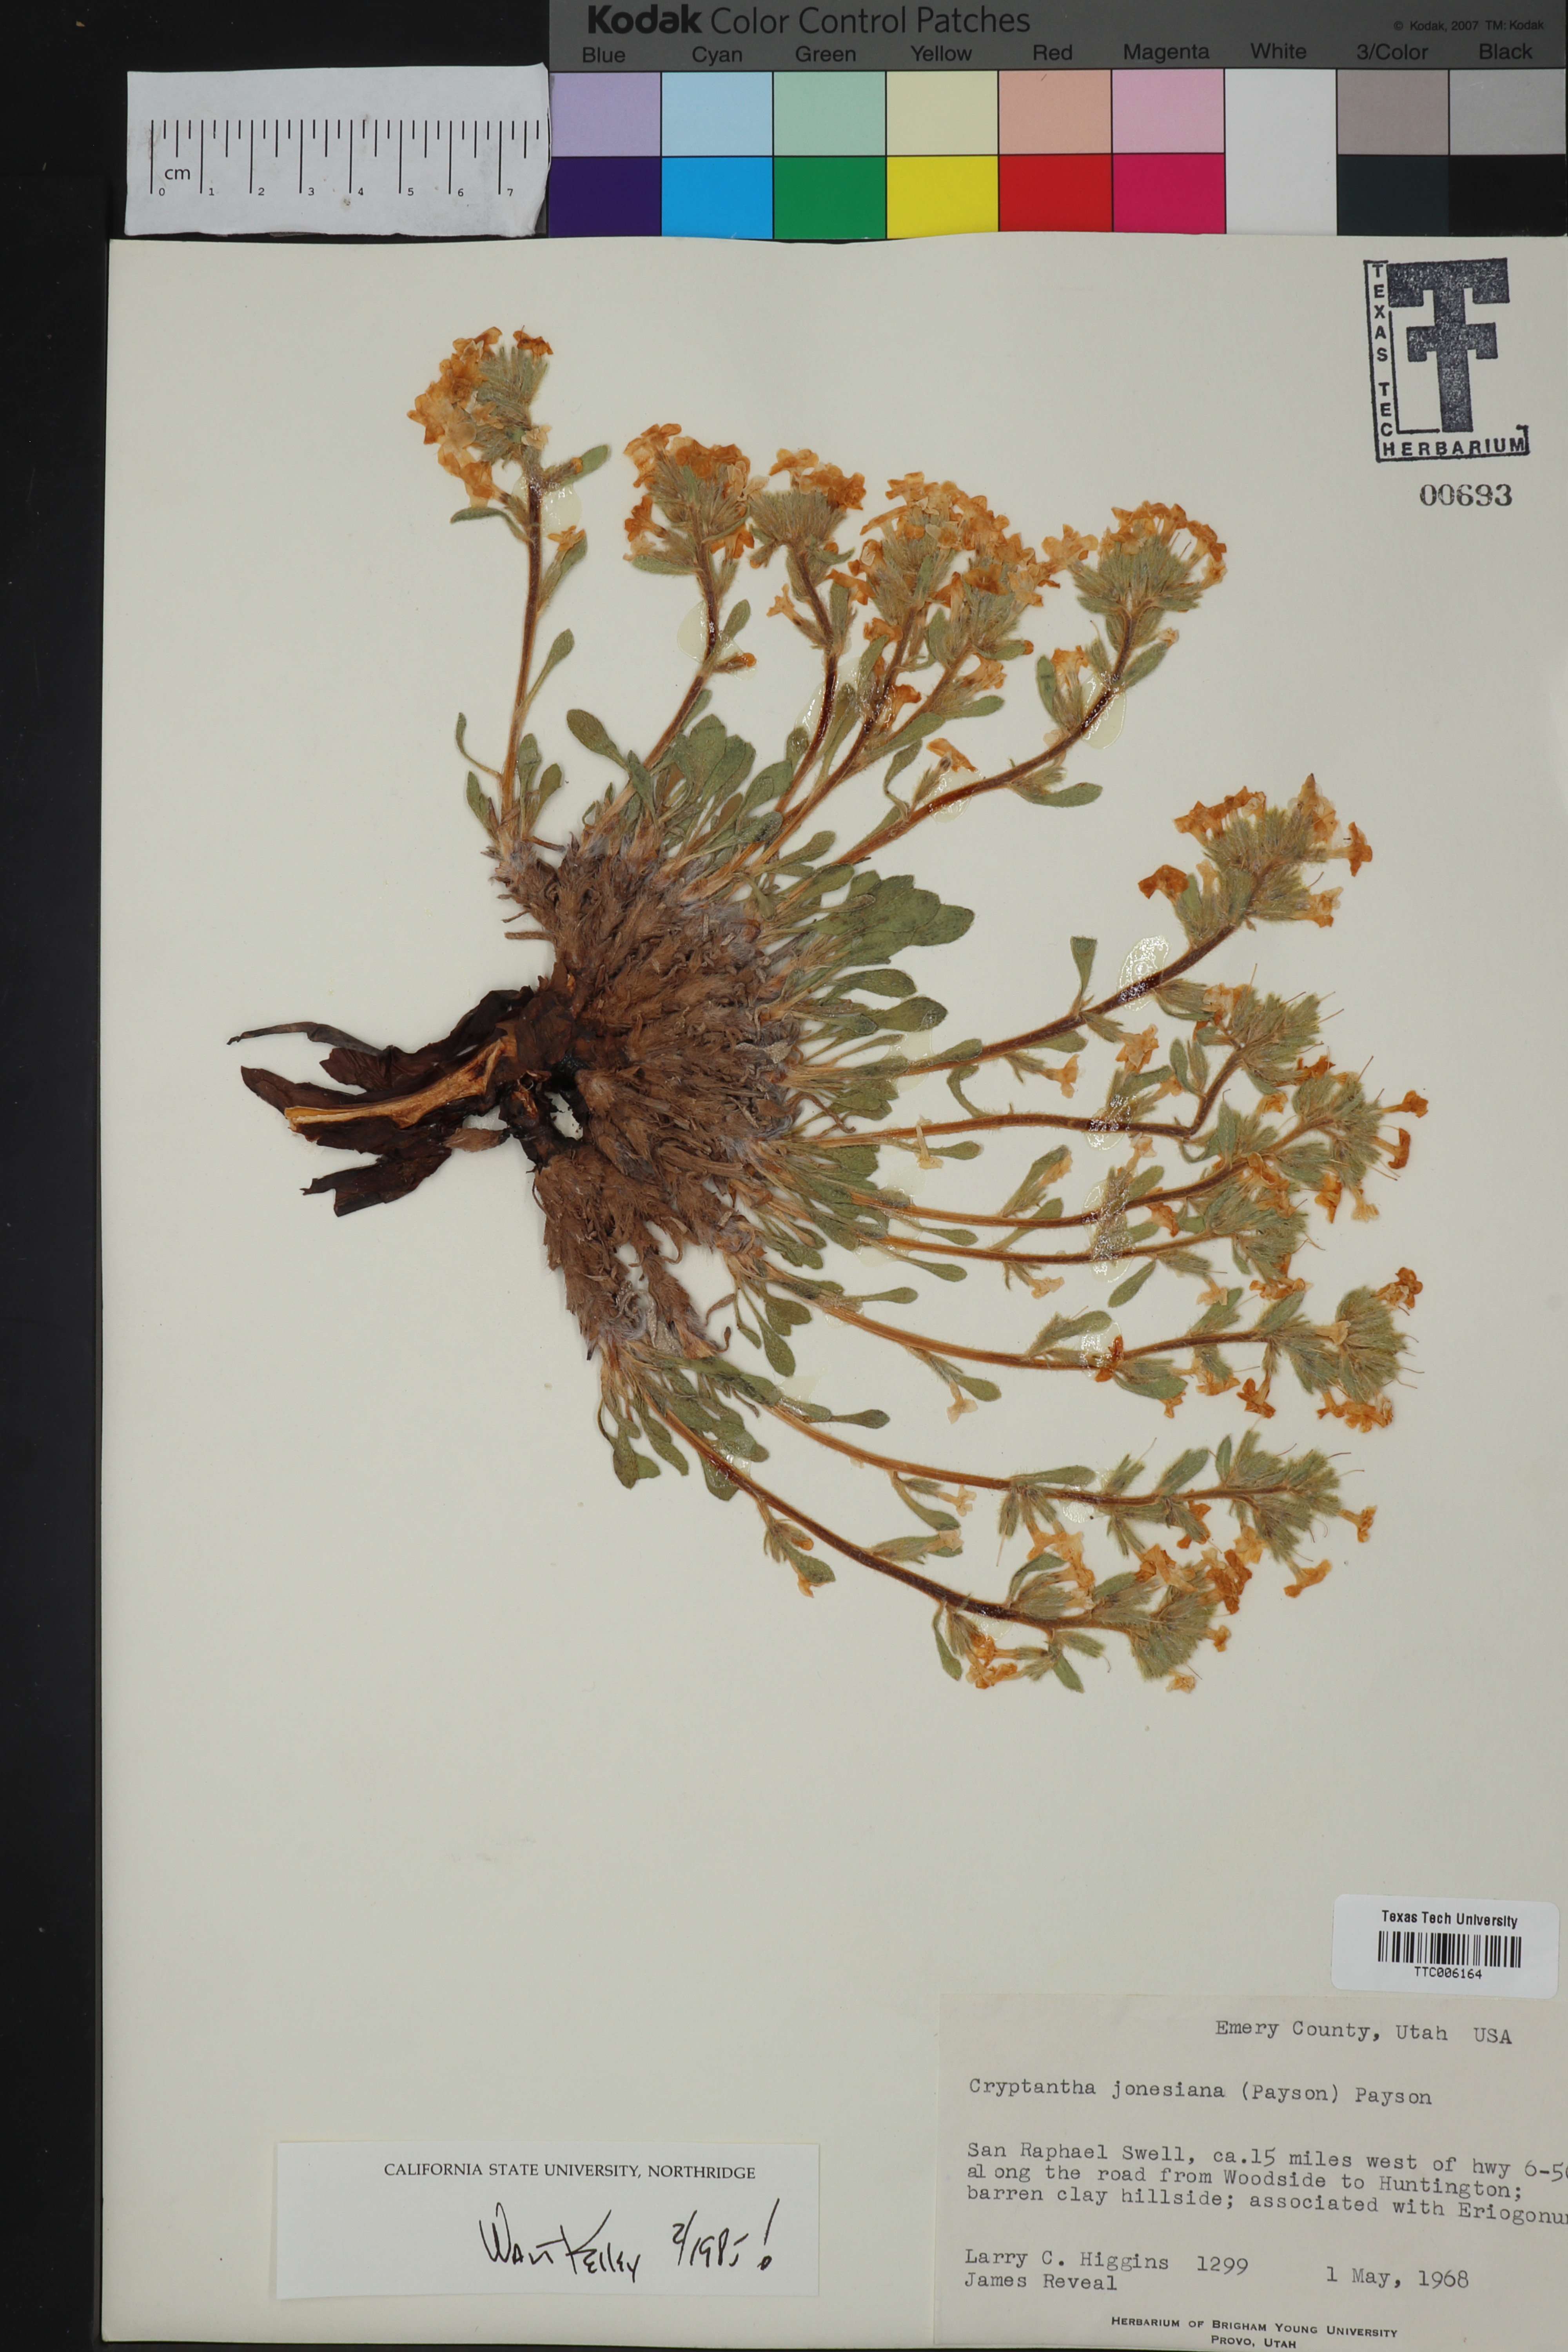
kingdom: Plantae
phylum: Tracheophyta
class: Magnoliopsida
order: Boraginales
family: Boraginaceae
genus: Oreocarya
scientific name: Oreocarya jonesiana
